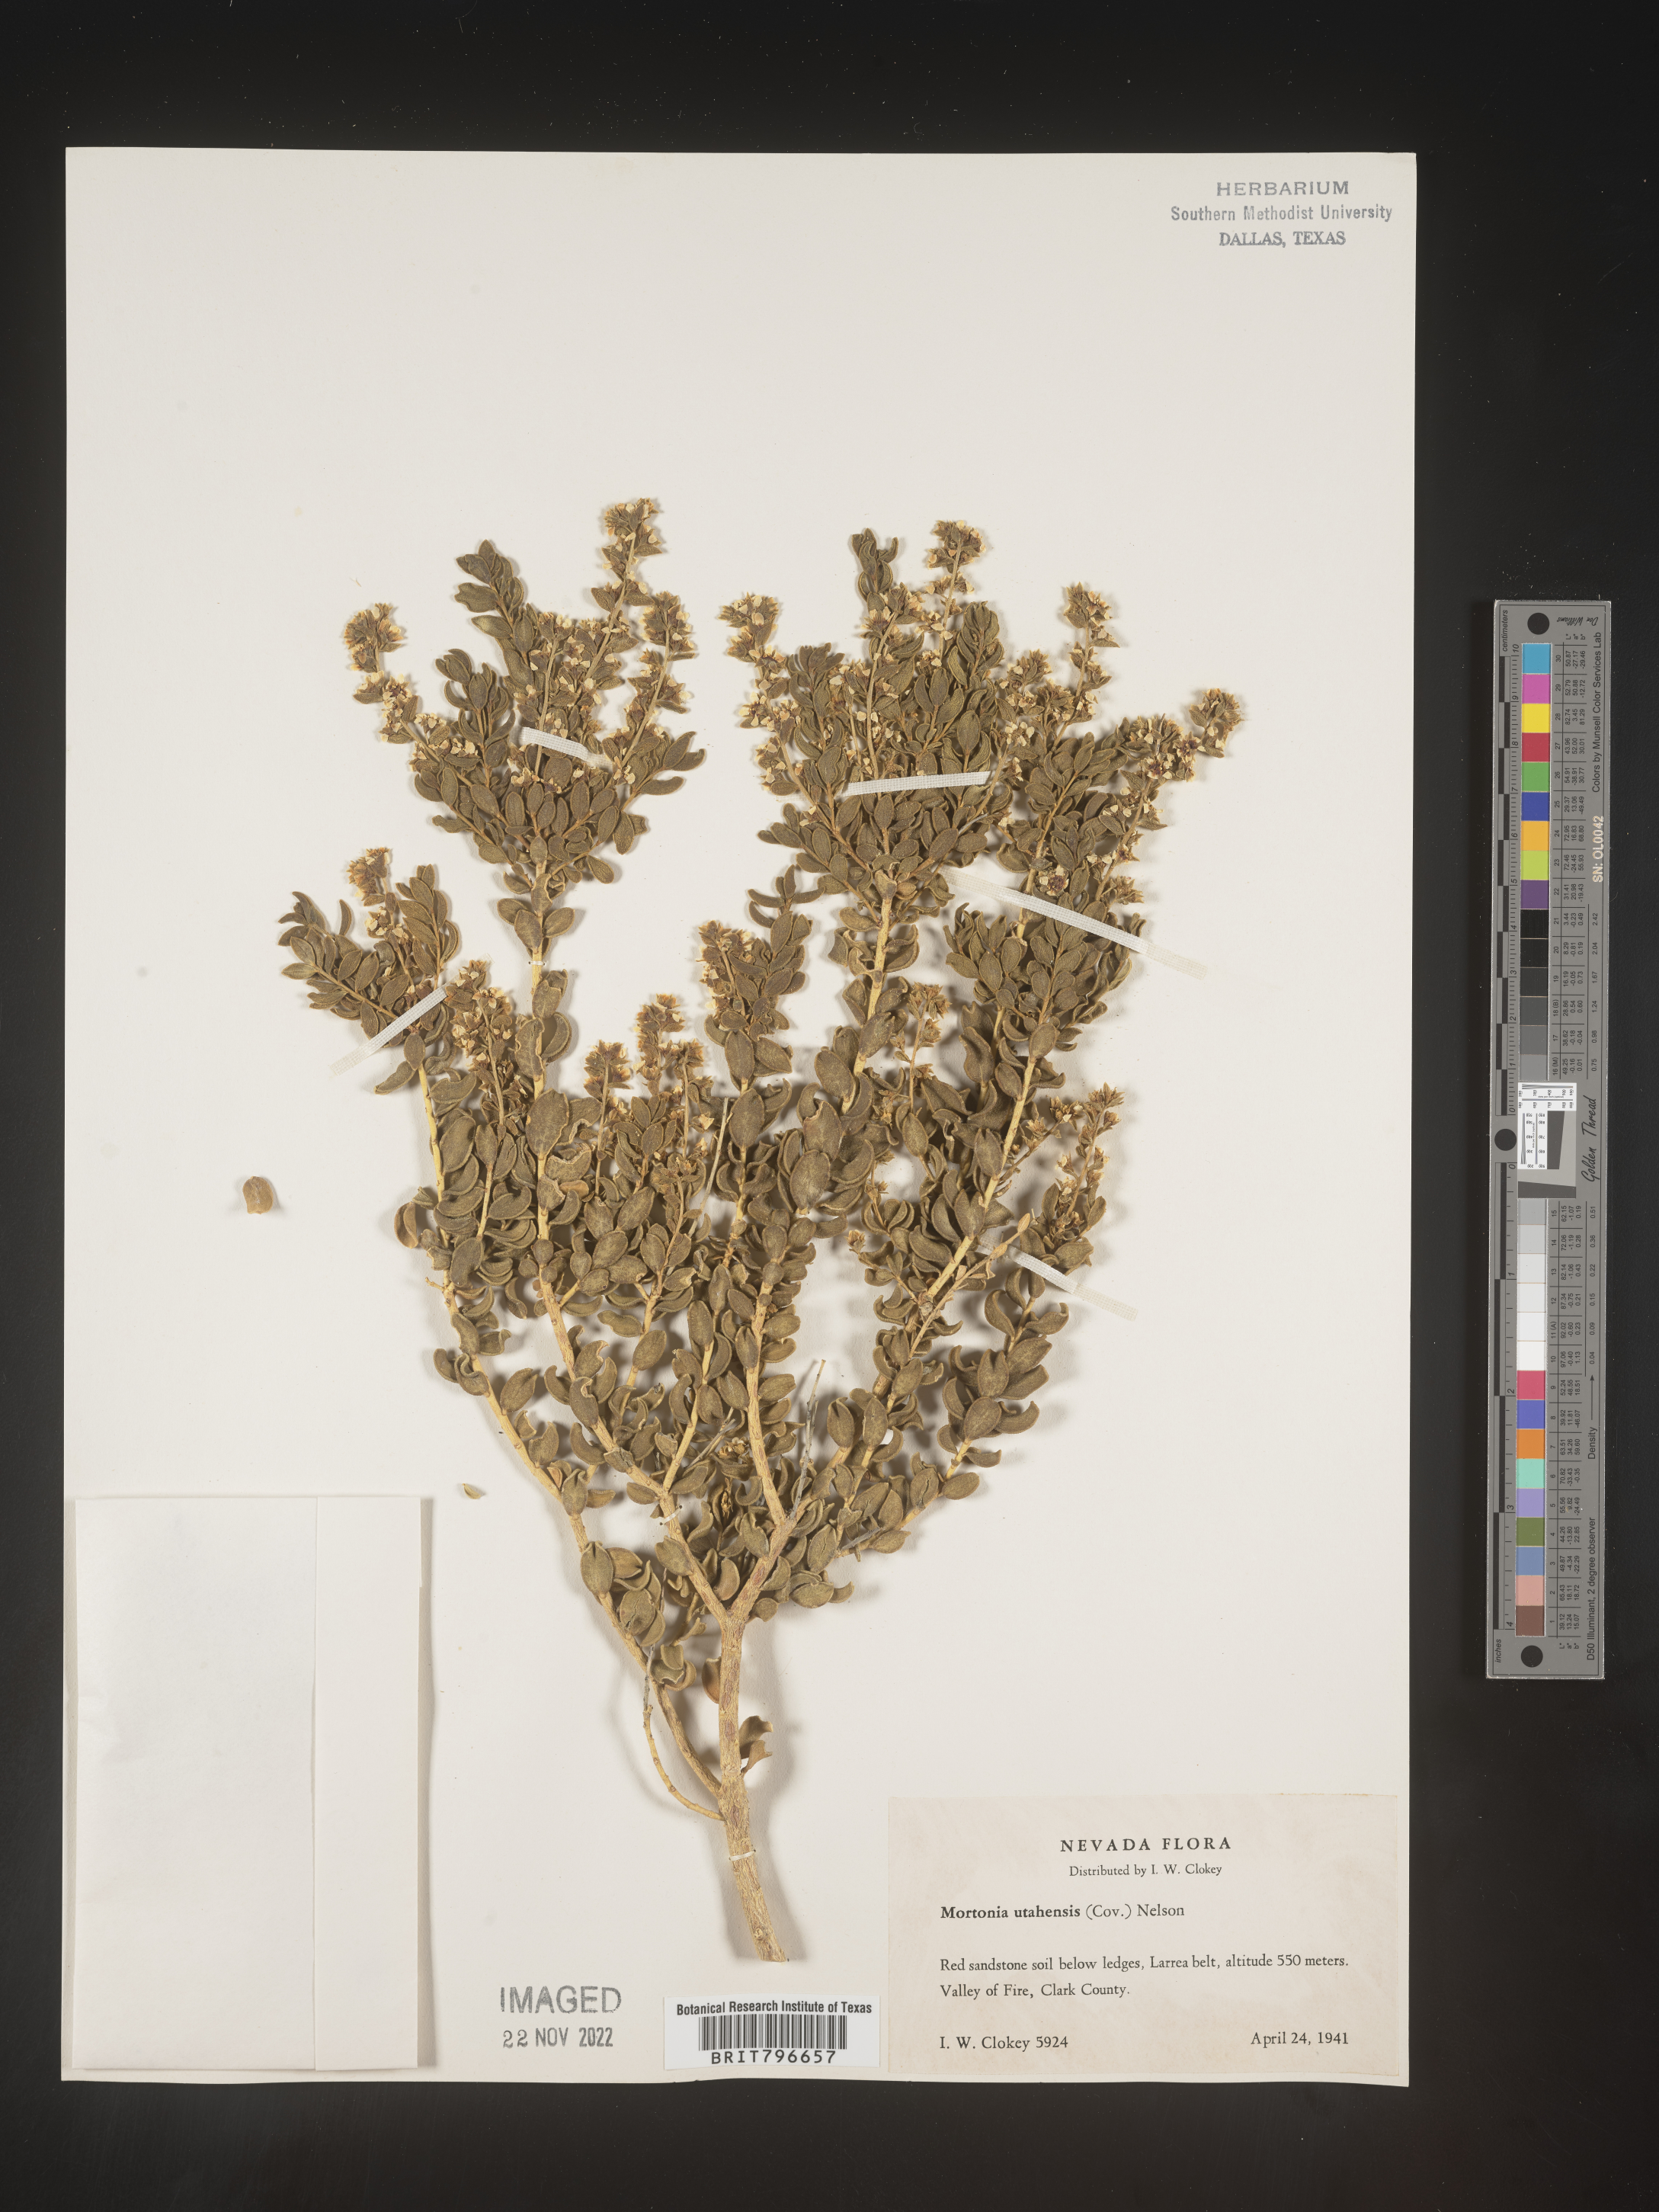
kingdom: Plantae
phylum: Tracheophyta
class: Magnoliopsida
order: Celastrales
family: Celastraceae
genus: Mortonia
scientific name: Mortonia
